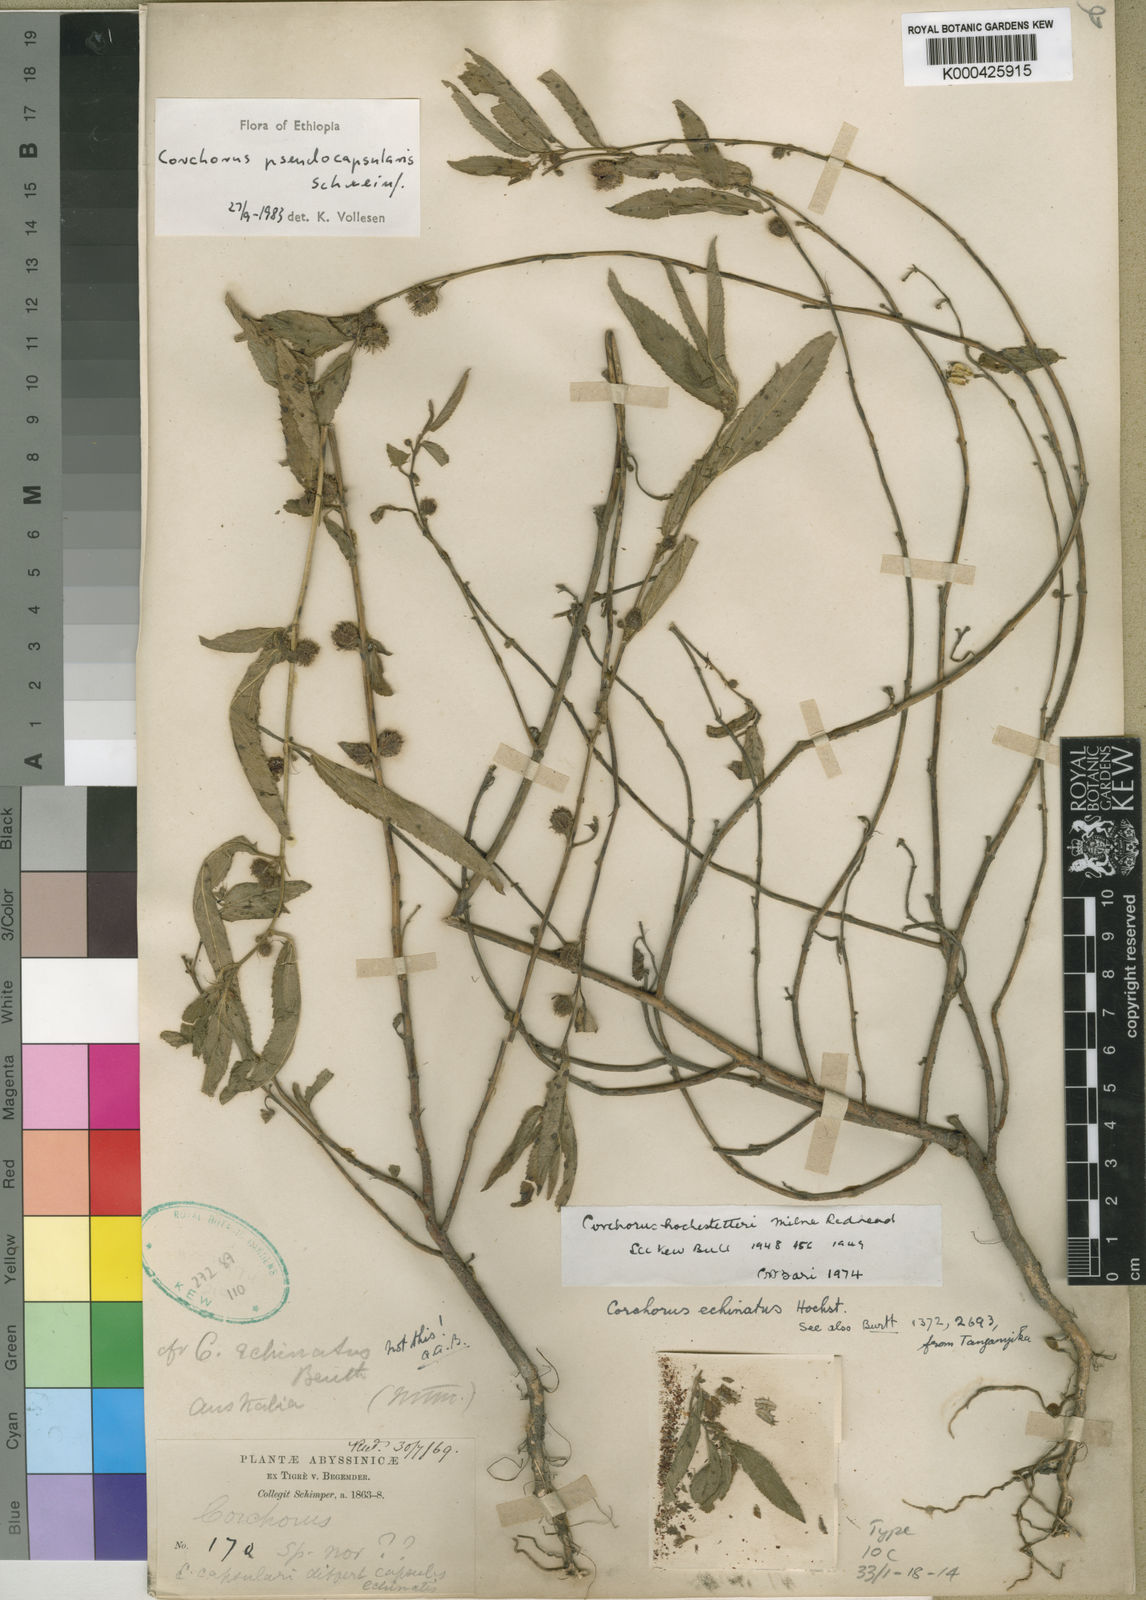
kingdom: Plantae
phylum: Tracheophyta
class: Magnoliopsida
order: Malvales
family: Malvaceae
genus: Corchorus
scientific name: Corchorus pseudocapsularis
